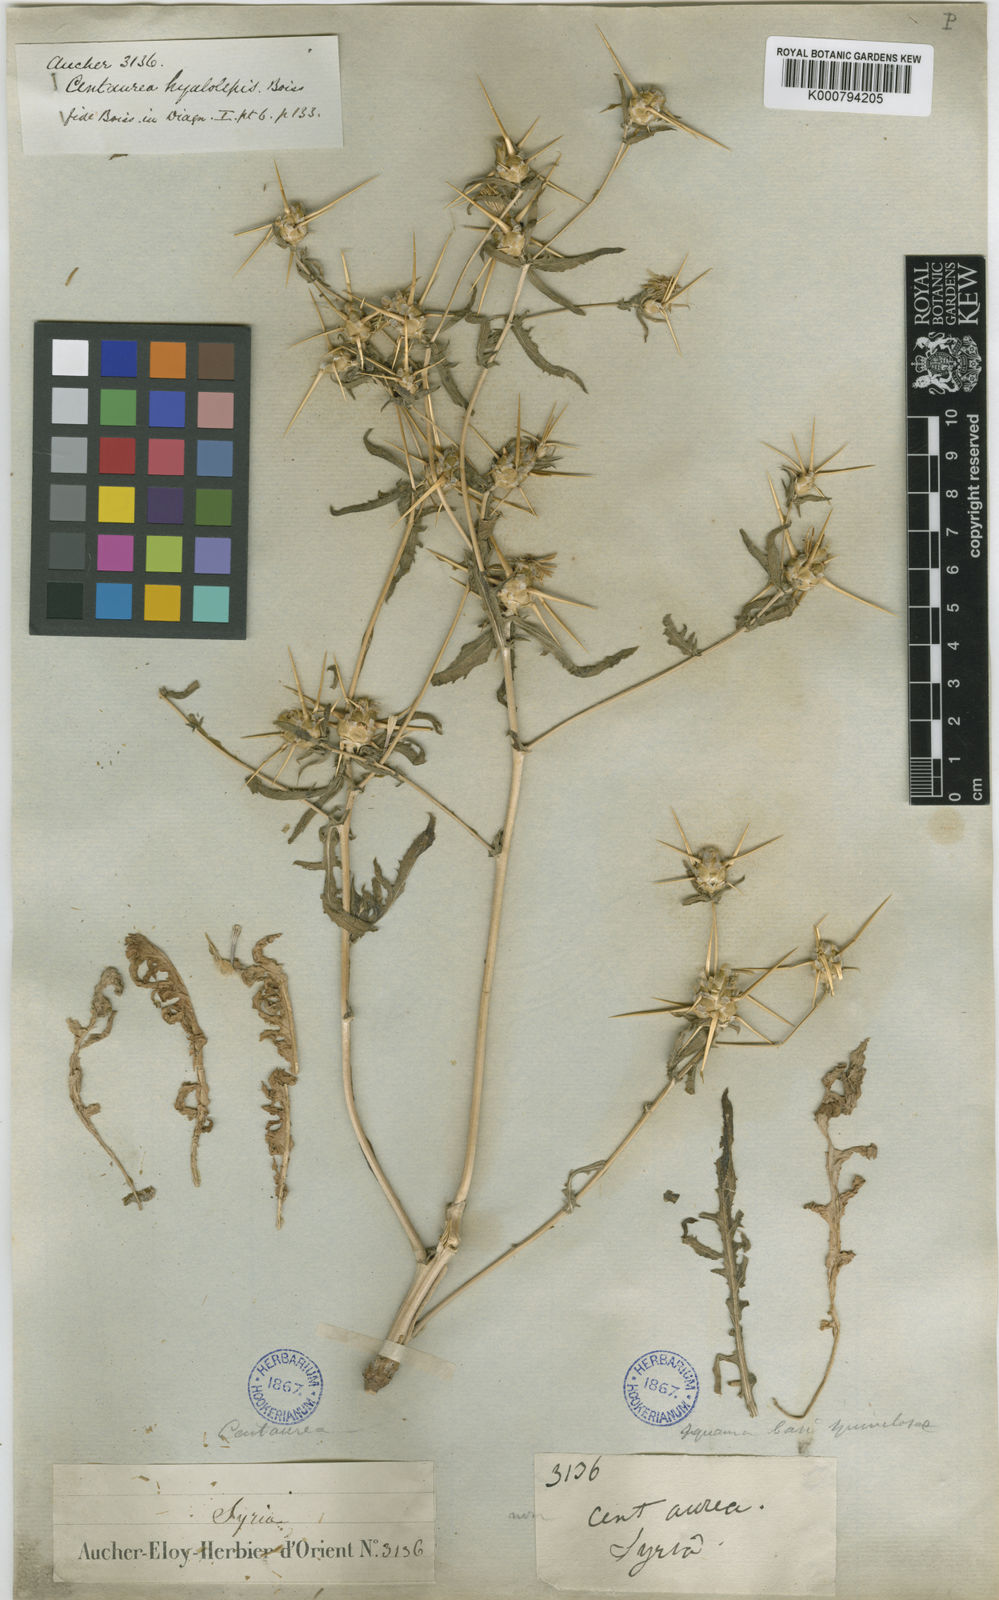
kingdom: Plantae
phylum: Tracheophyta
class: Magnoliopsida
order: Asterales
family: Asteraceae
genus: Centaurea
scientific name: Centaurea hyalolepis
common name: Eastern star-thistle
